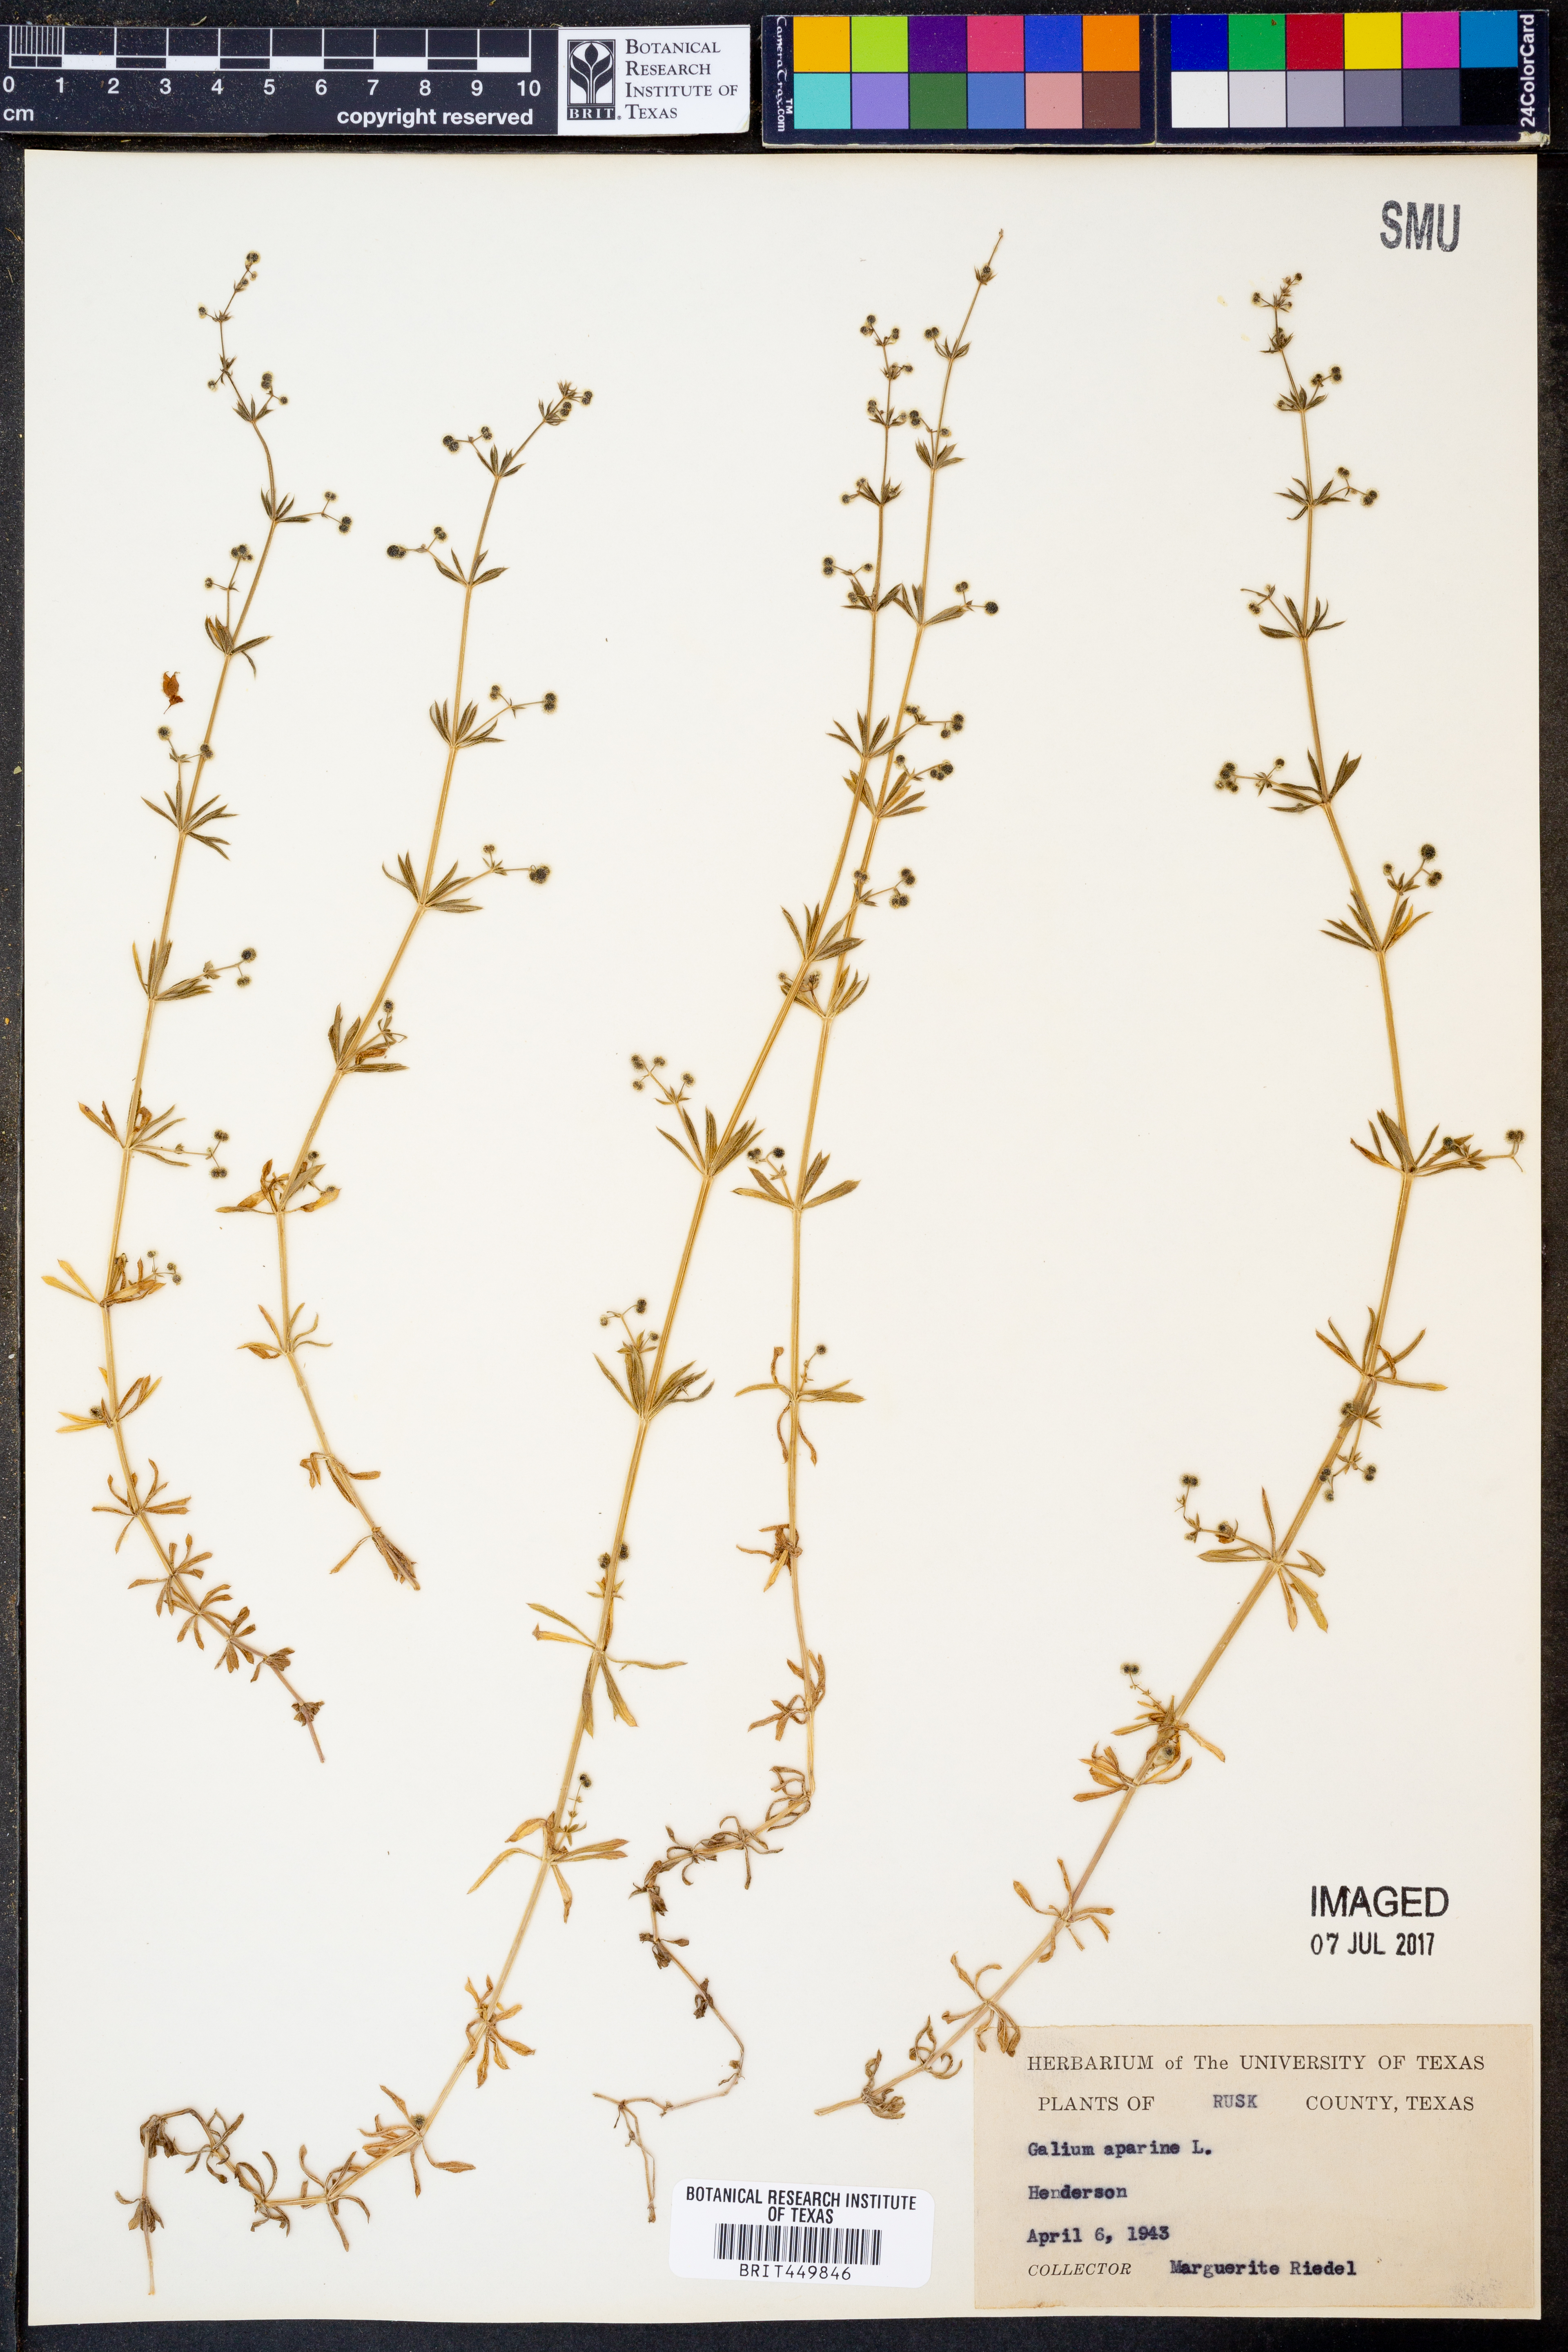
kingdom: Plantae
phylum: Tracheophyta
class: Magnoliopsida
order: Gentianales
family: Rubiaceae
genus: Galium
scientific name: Galium aparine
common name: Cleavers
